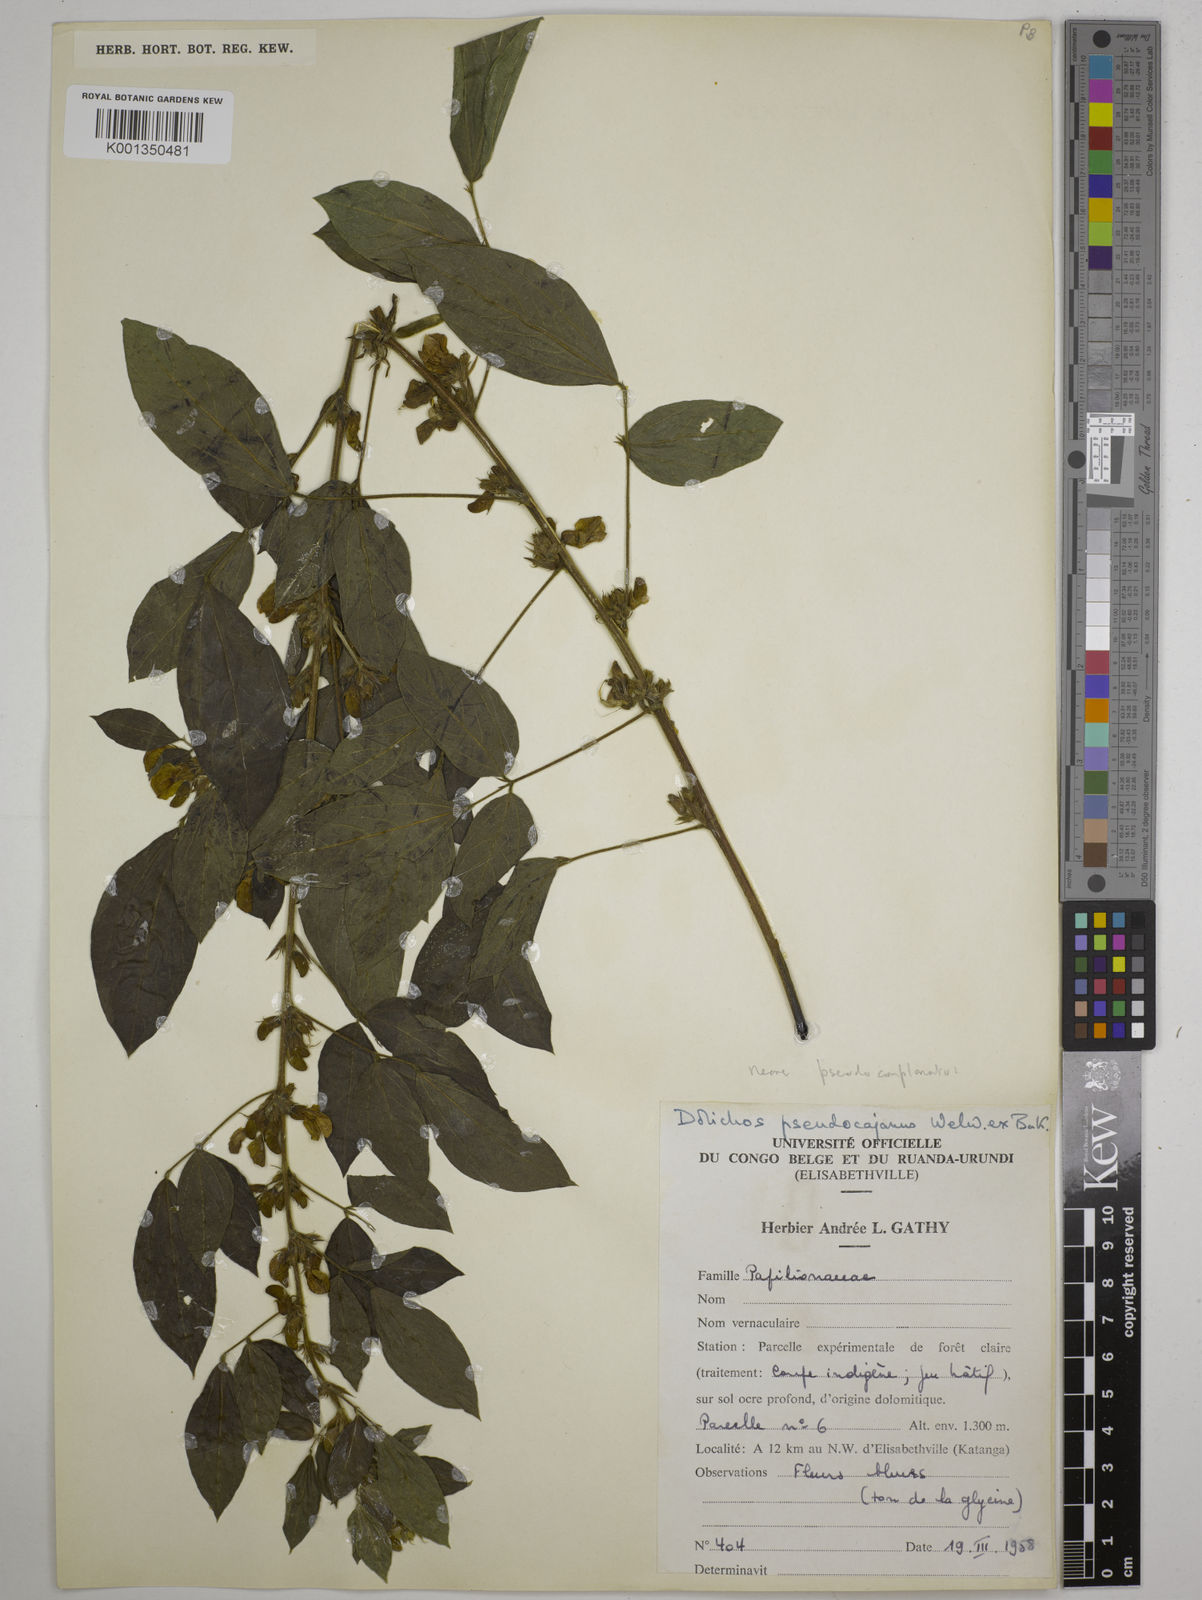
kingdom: Plantae
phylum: Tracheophyta
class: Magnoliopsida
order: Fabales
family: Fabaceae
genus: Dolichos
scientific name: Dolichos pseudocajanus
